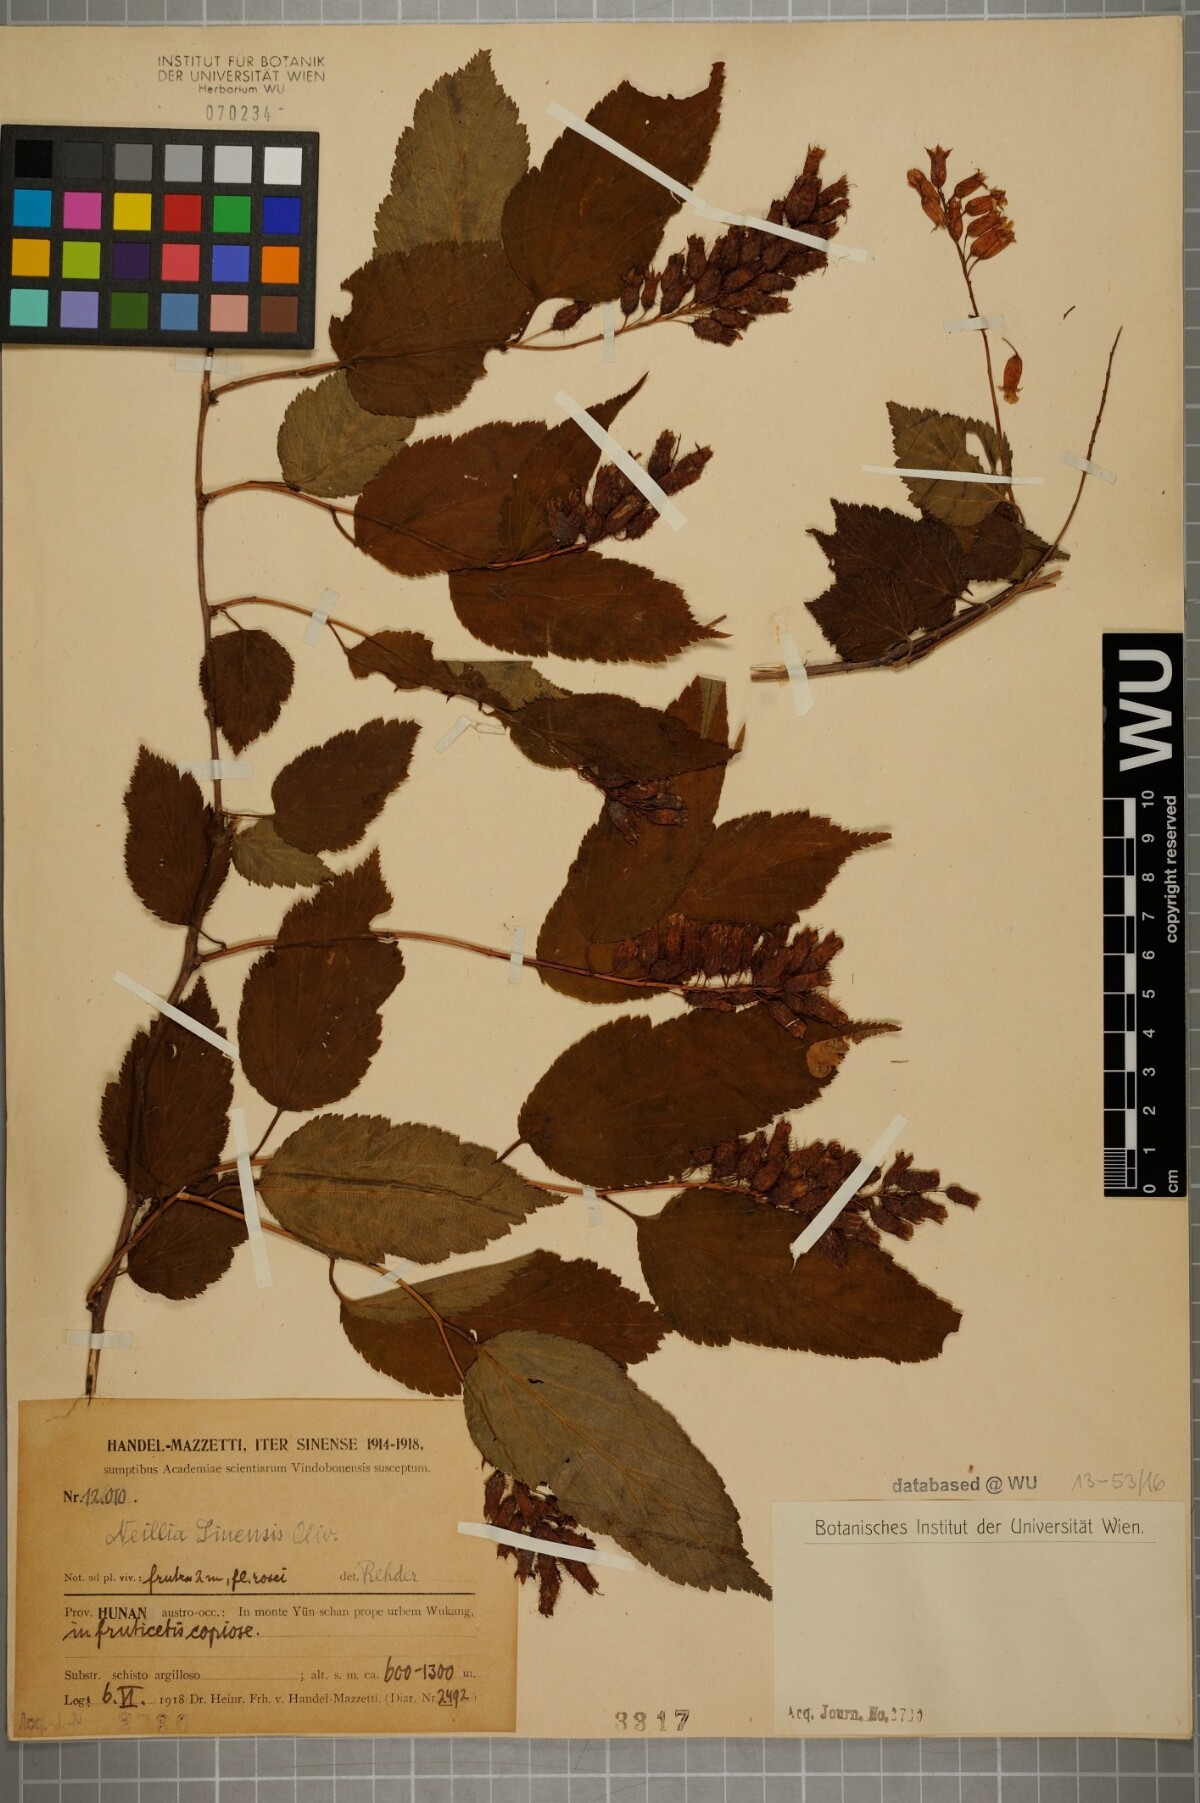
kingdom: Plantae
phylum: Tracheophyta
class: Magnoliopsida
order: Rosales
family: Rosaceae
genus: Neillia
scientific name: Neillia sinensis
